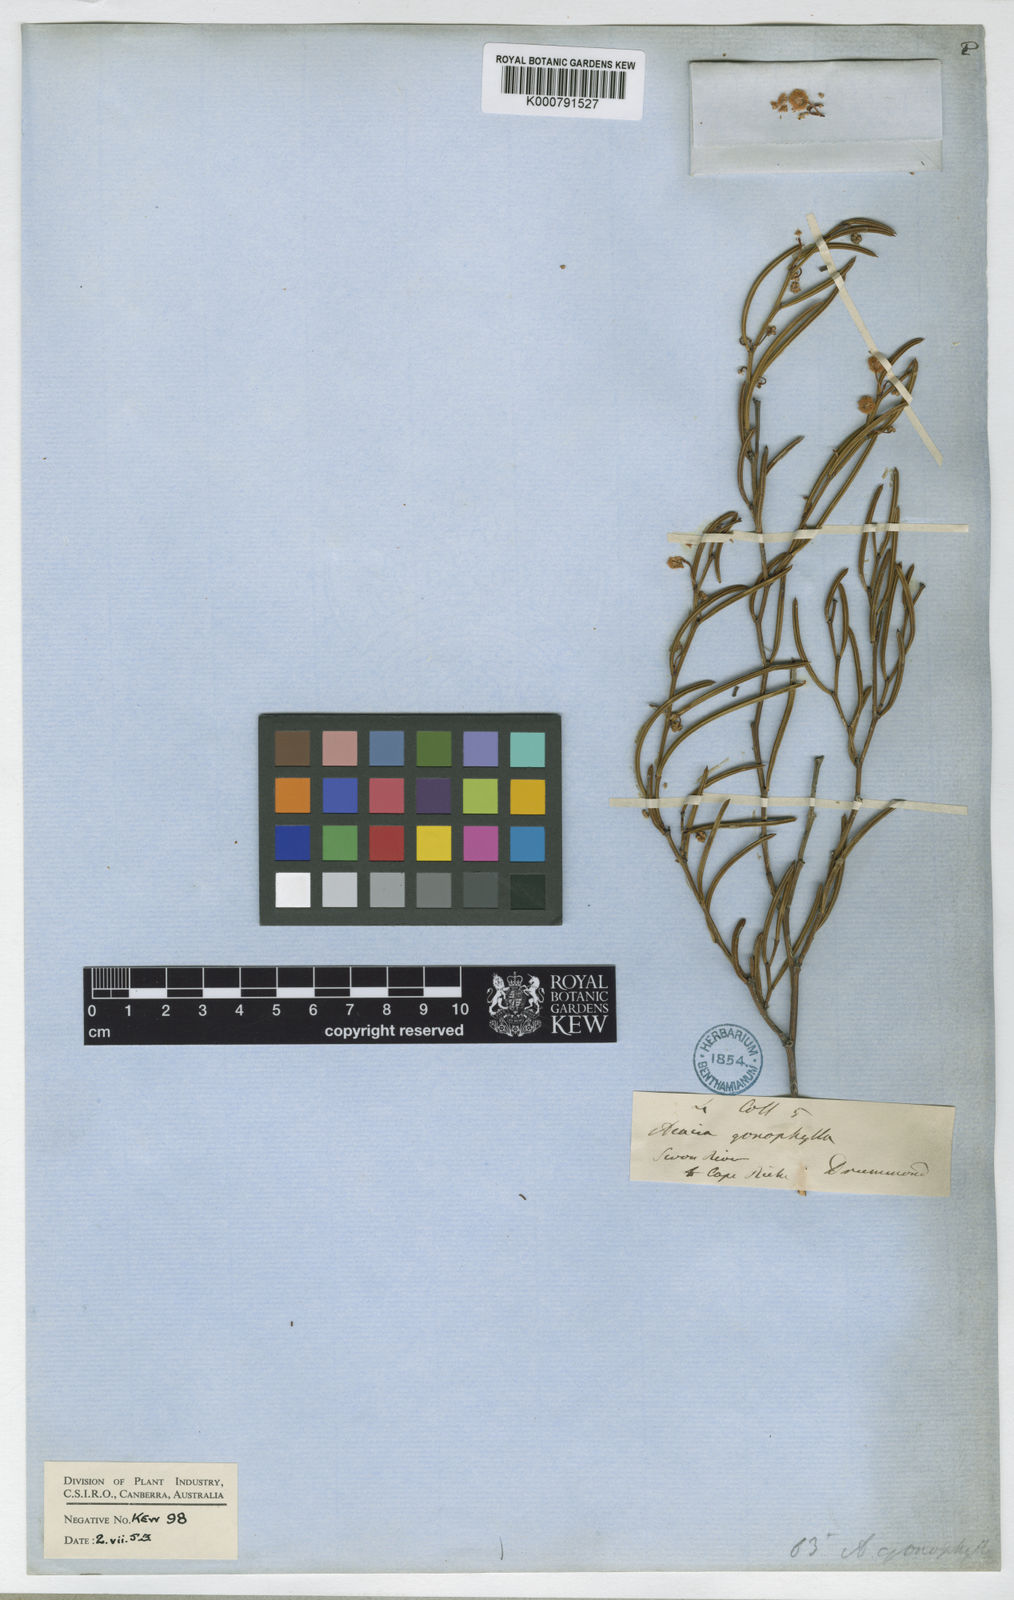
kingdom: Plantae
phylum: Tracheophyta
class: Magnoliopsida
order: Fabales
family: Fabaceae
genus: Acacia
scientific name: Acacia gonophylla
